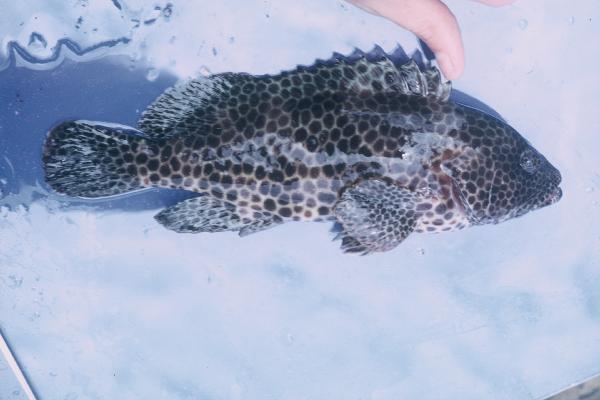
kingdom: Animalia
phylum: Chordata
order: Perciformes
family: Serranidae
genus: Epinephelus
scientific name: Epinephelus merra
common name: Honeycomb grouper
